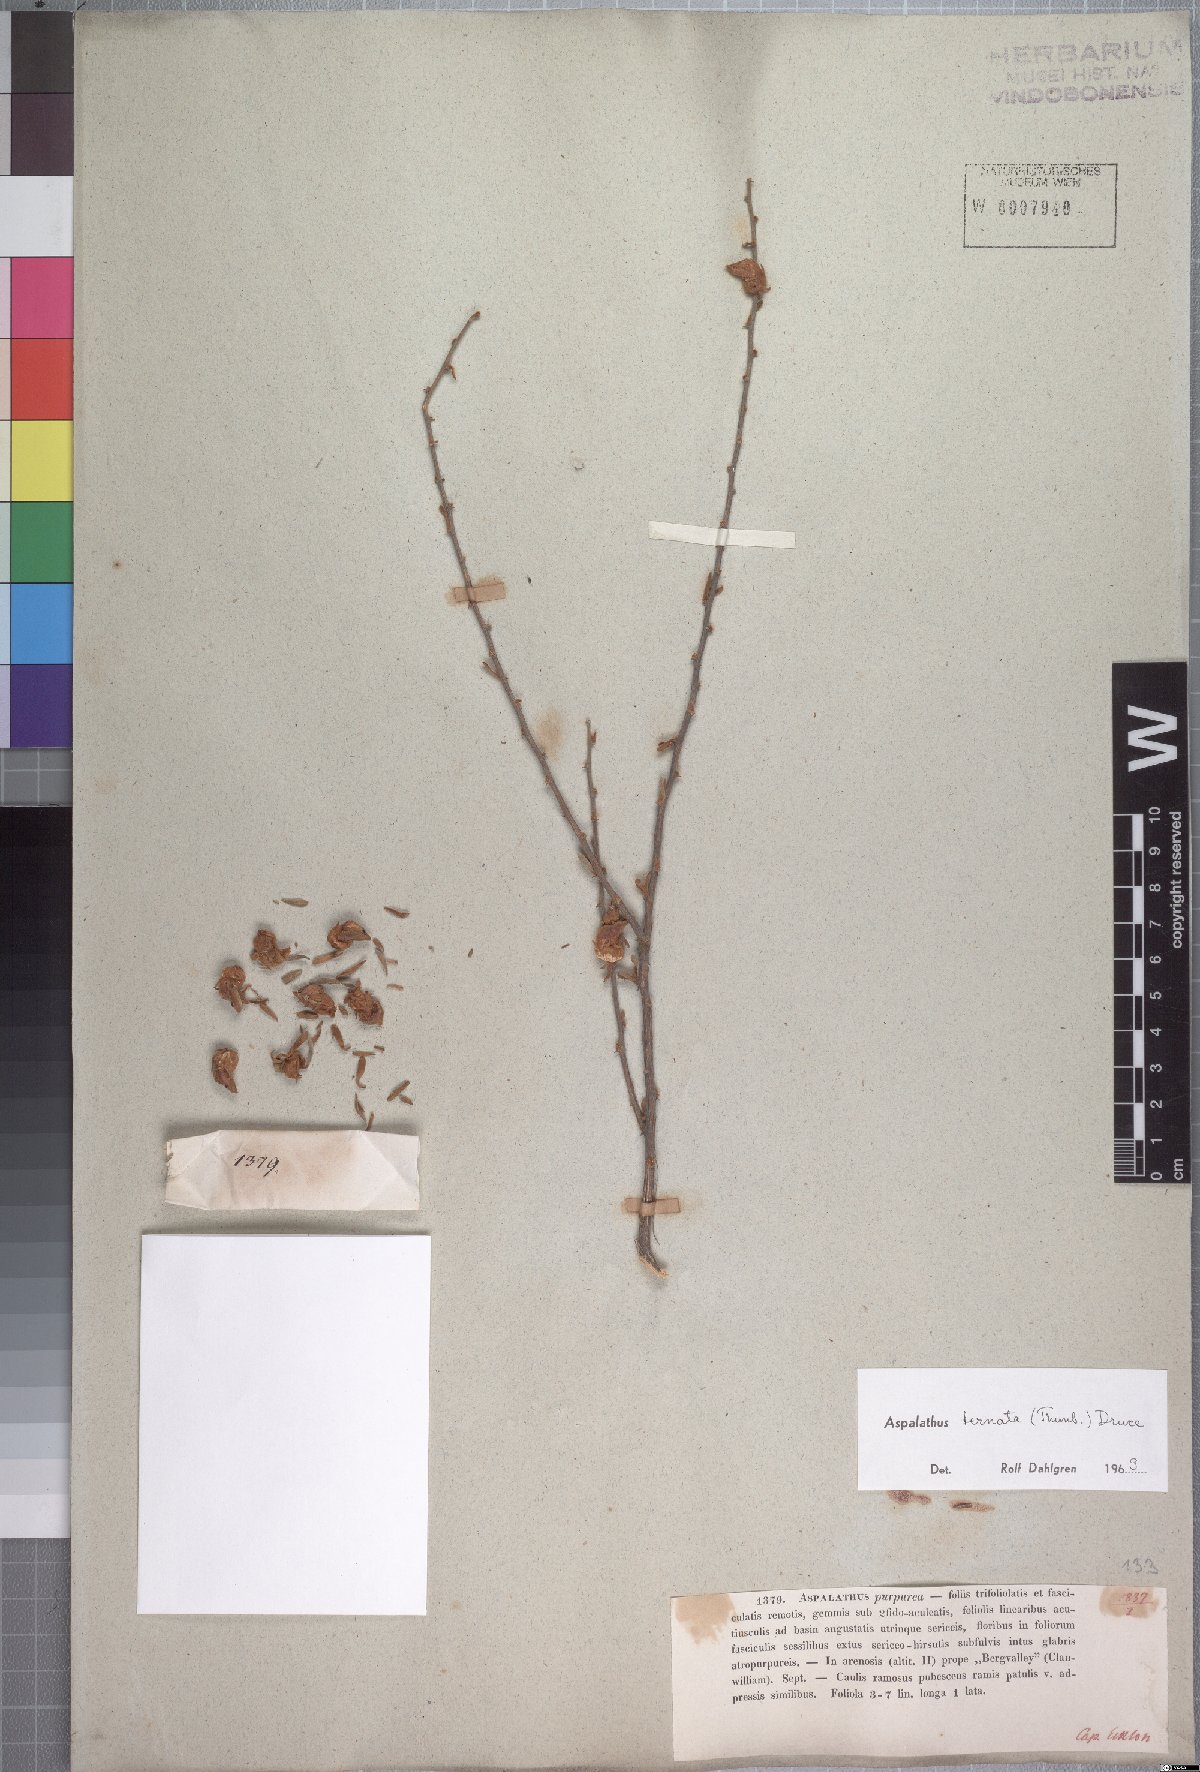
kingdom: Plantae
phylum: Tracheophyta
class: Magnoliopsida
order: Fabales
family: Fabaceae
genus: Aspalathus
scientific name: Aspalathus ternata
